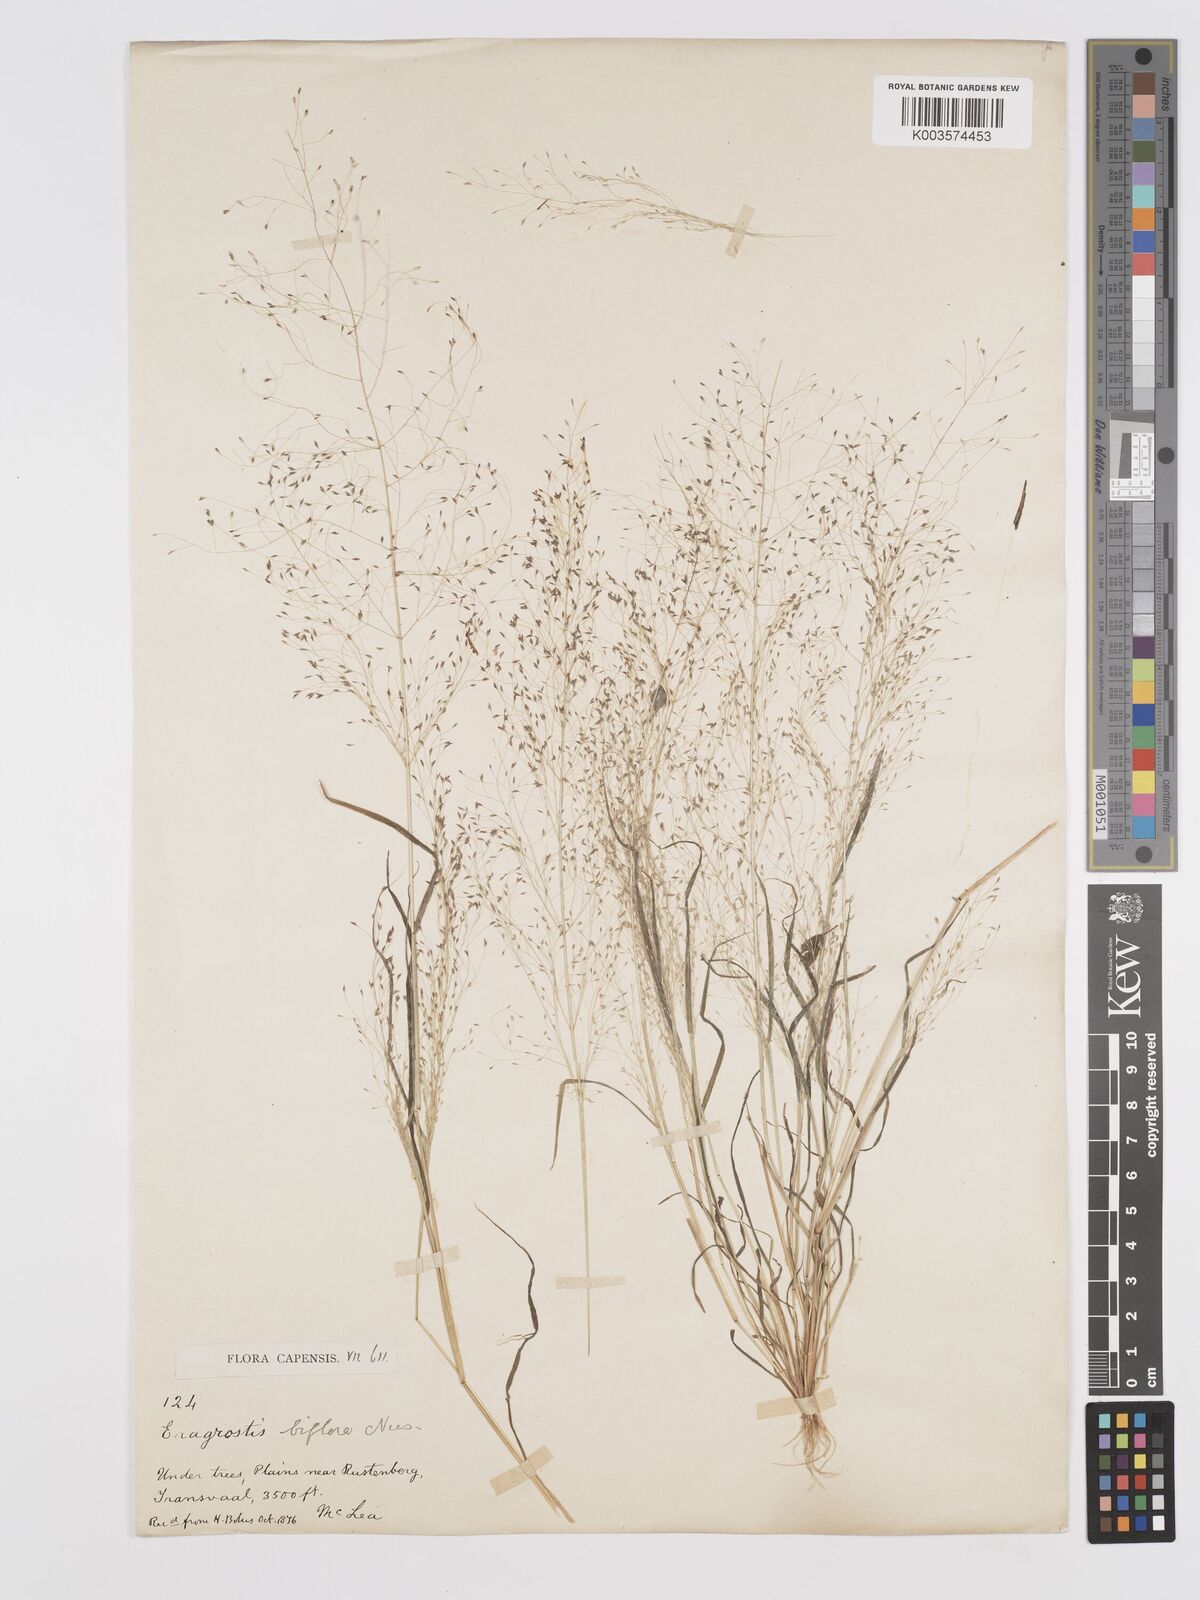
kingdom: Plantae
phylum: Tracheophyta
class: Liliopsida
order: Poales
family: Poaceae
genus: Eragrostis
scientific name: Eragrostis biflora
